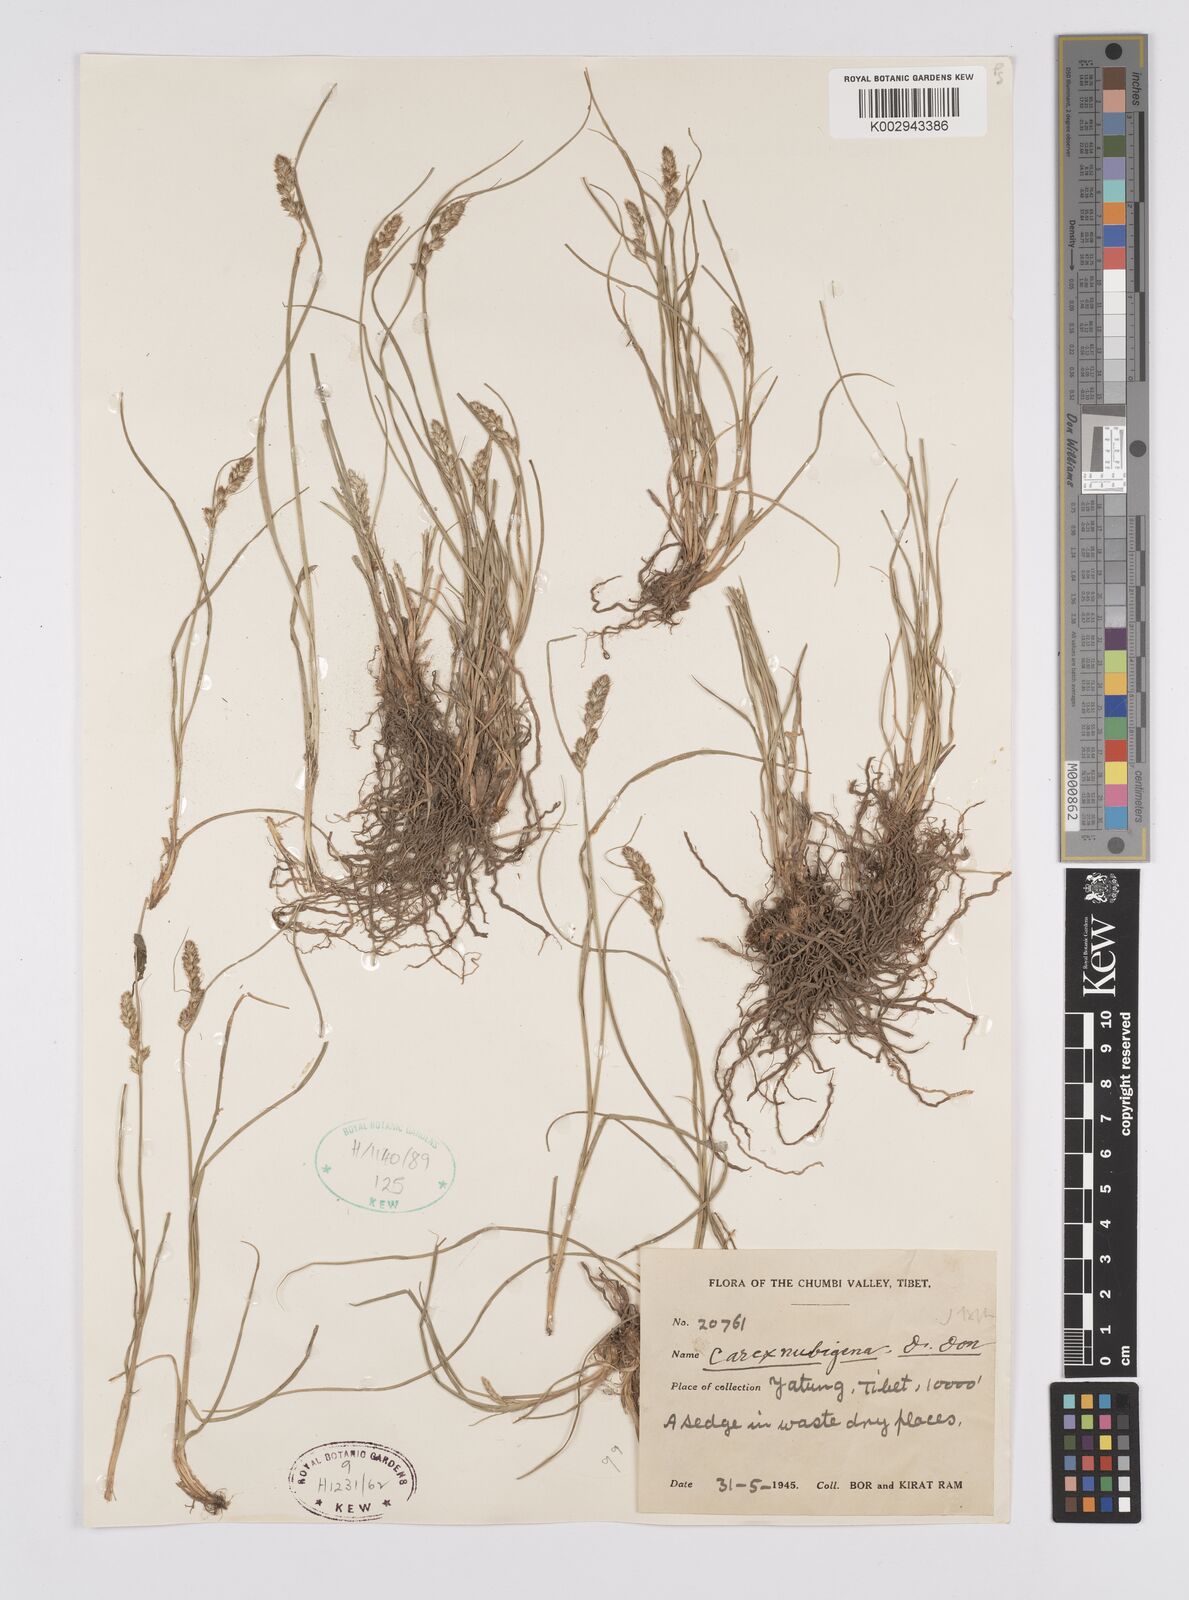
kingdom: Plantae
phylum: Tracheophyta
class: Liliopsida
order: Poales
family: Cyperaceae
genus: Carex
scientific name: Carex nubigena
